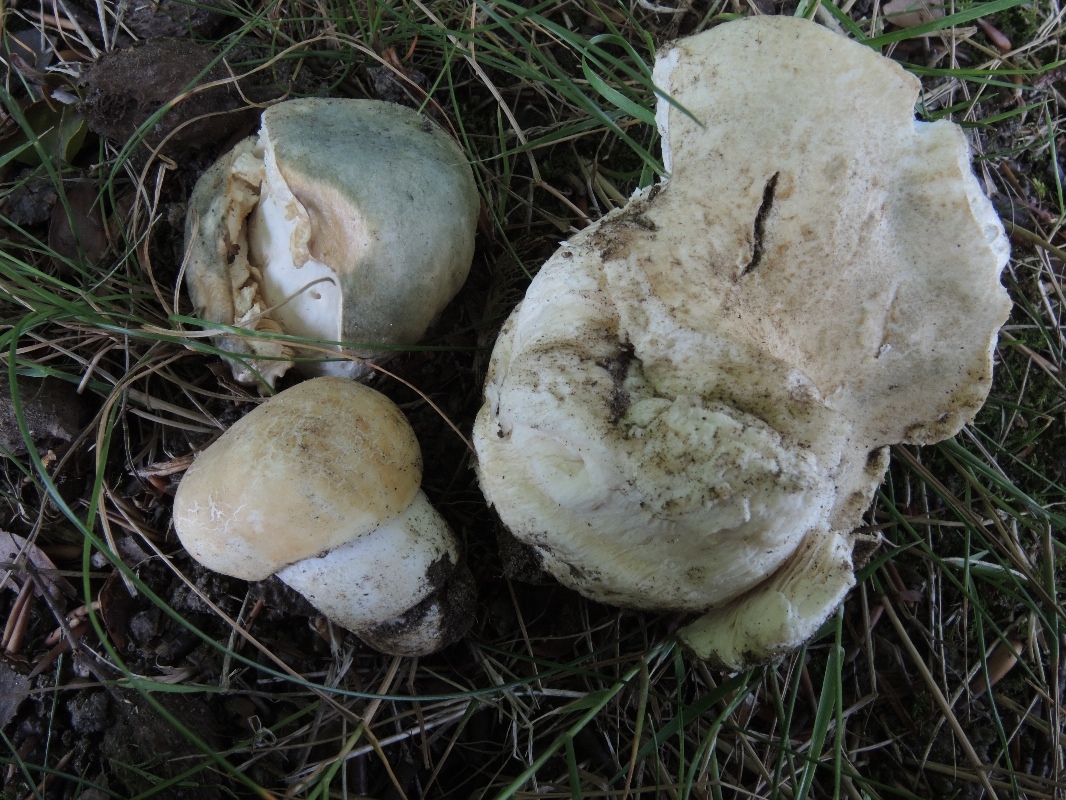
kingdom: Fungi
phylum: Basidiomycota
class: Agaricomycetes
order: Russulales
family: Russulaceae
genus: Russula
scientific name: Russula virescens
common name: spanskgrøn skørhat
